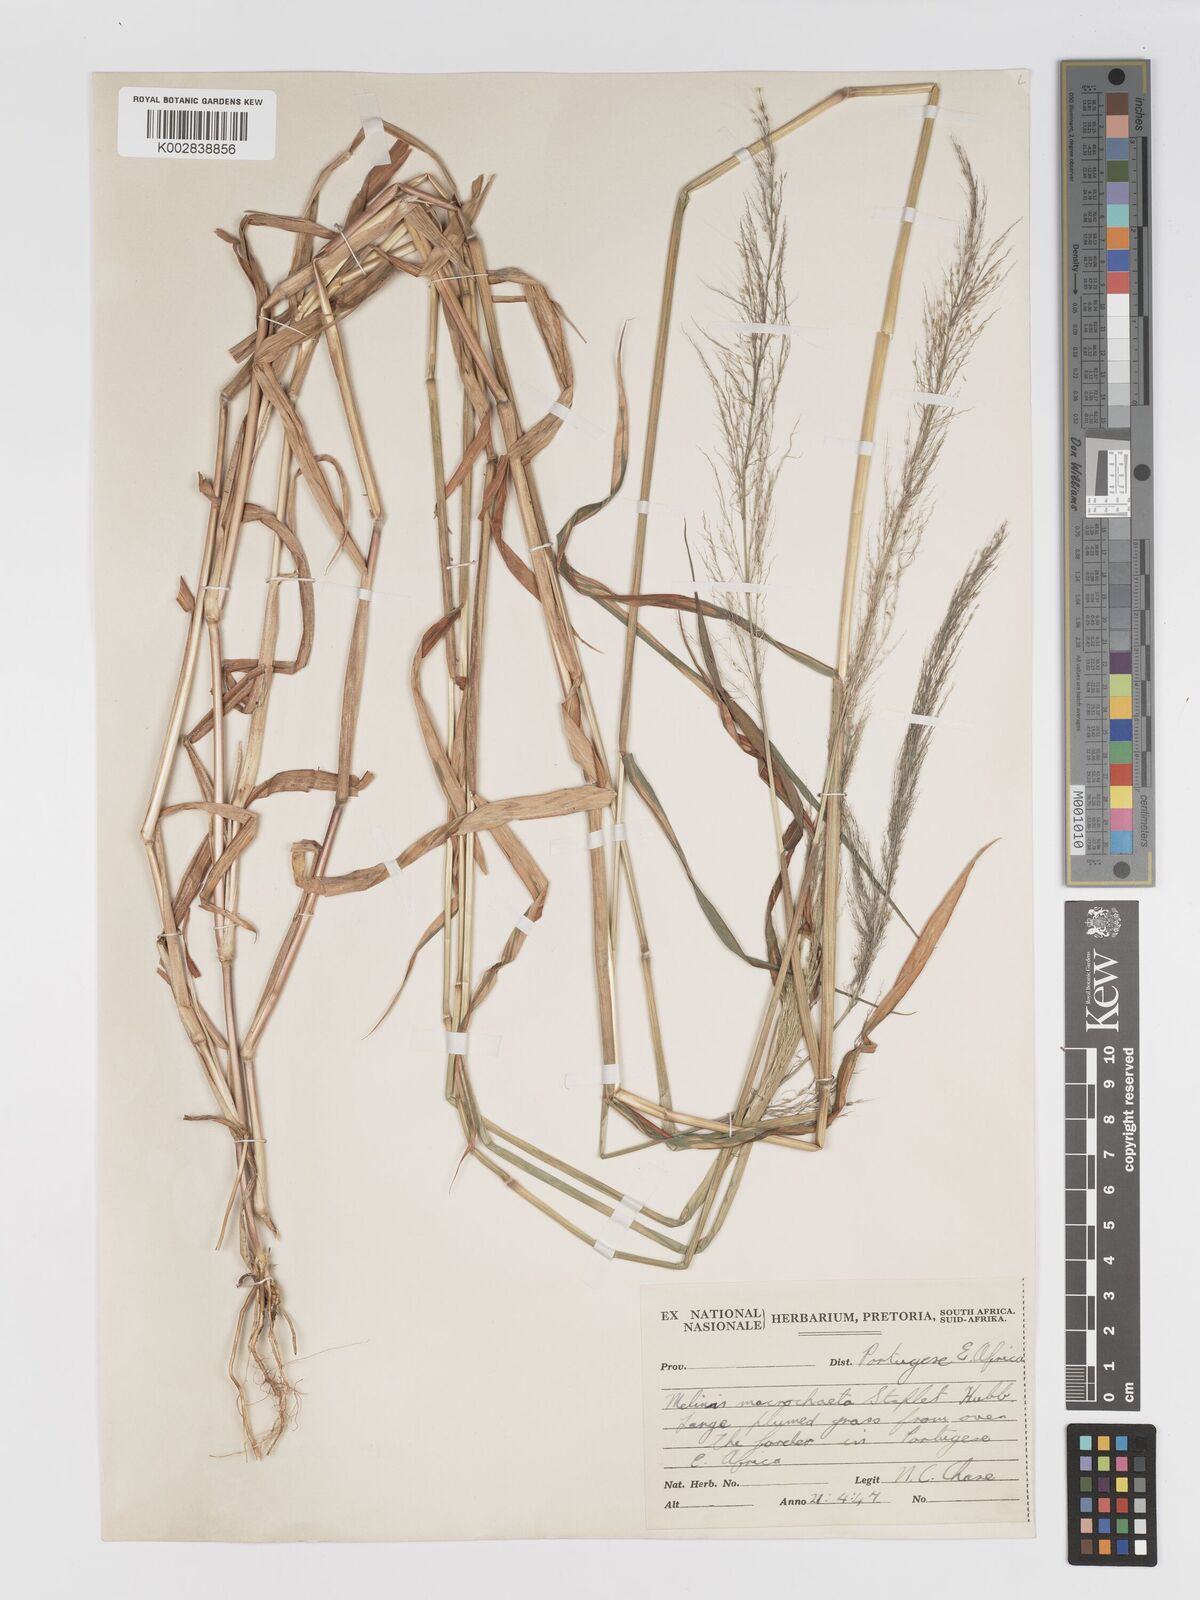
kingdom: Plantae
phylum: Tracheophyta
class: Liliopsida
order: Poales
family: Poaceae
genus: Melinis
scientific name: Melinis macrochaeta
